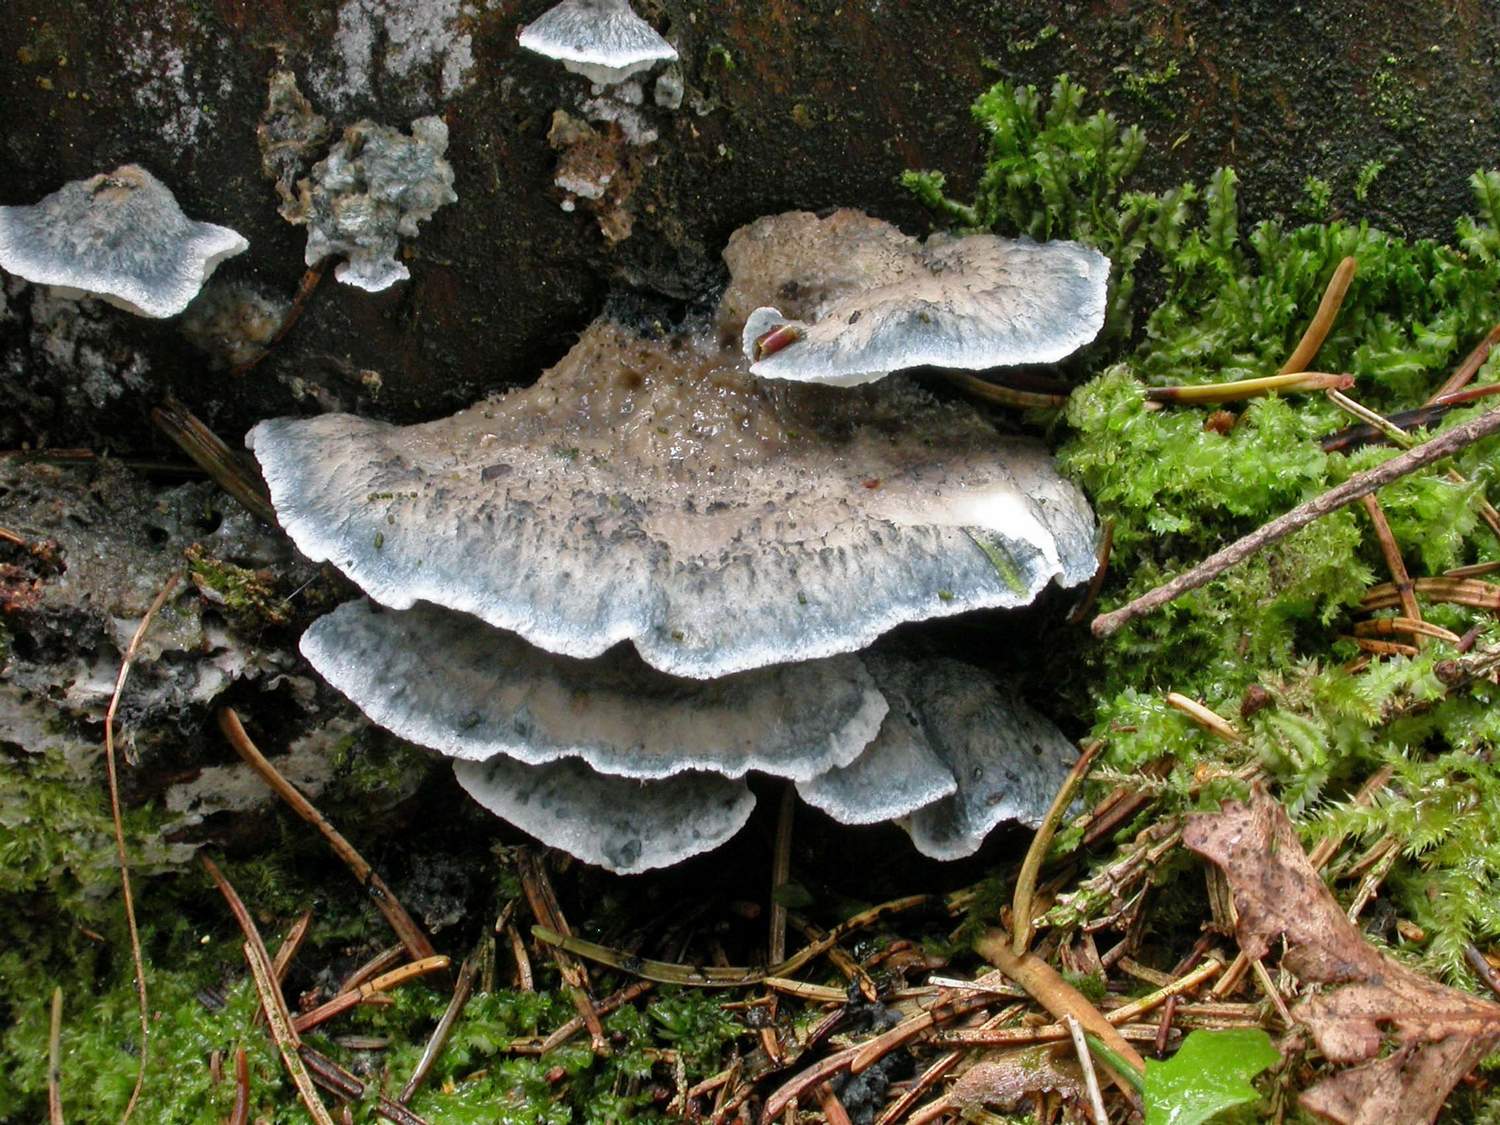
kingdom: Fungi
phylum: Basidiomycota
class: Agaricomycetes
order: Polyporales
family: Polyporaceae
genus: Cyanosporus
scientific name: Cyanosporus caesius
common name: blålig kødporesvamp
